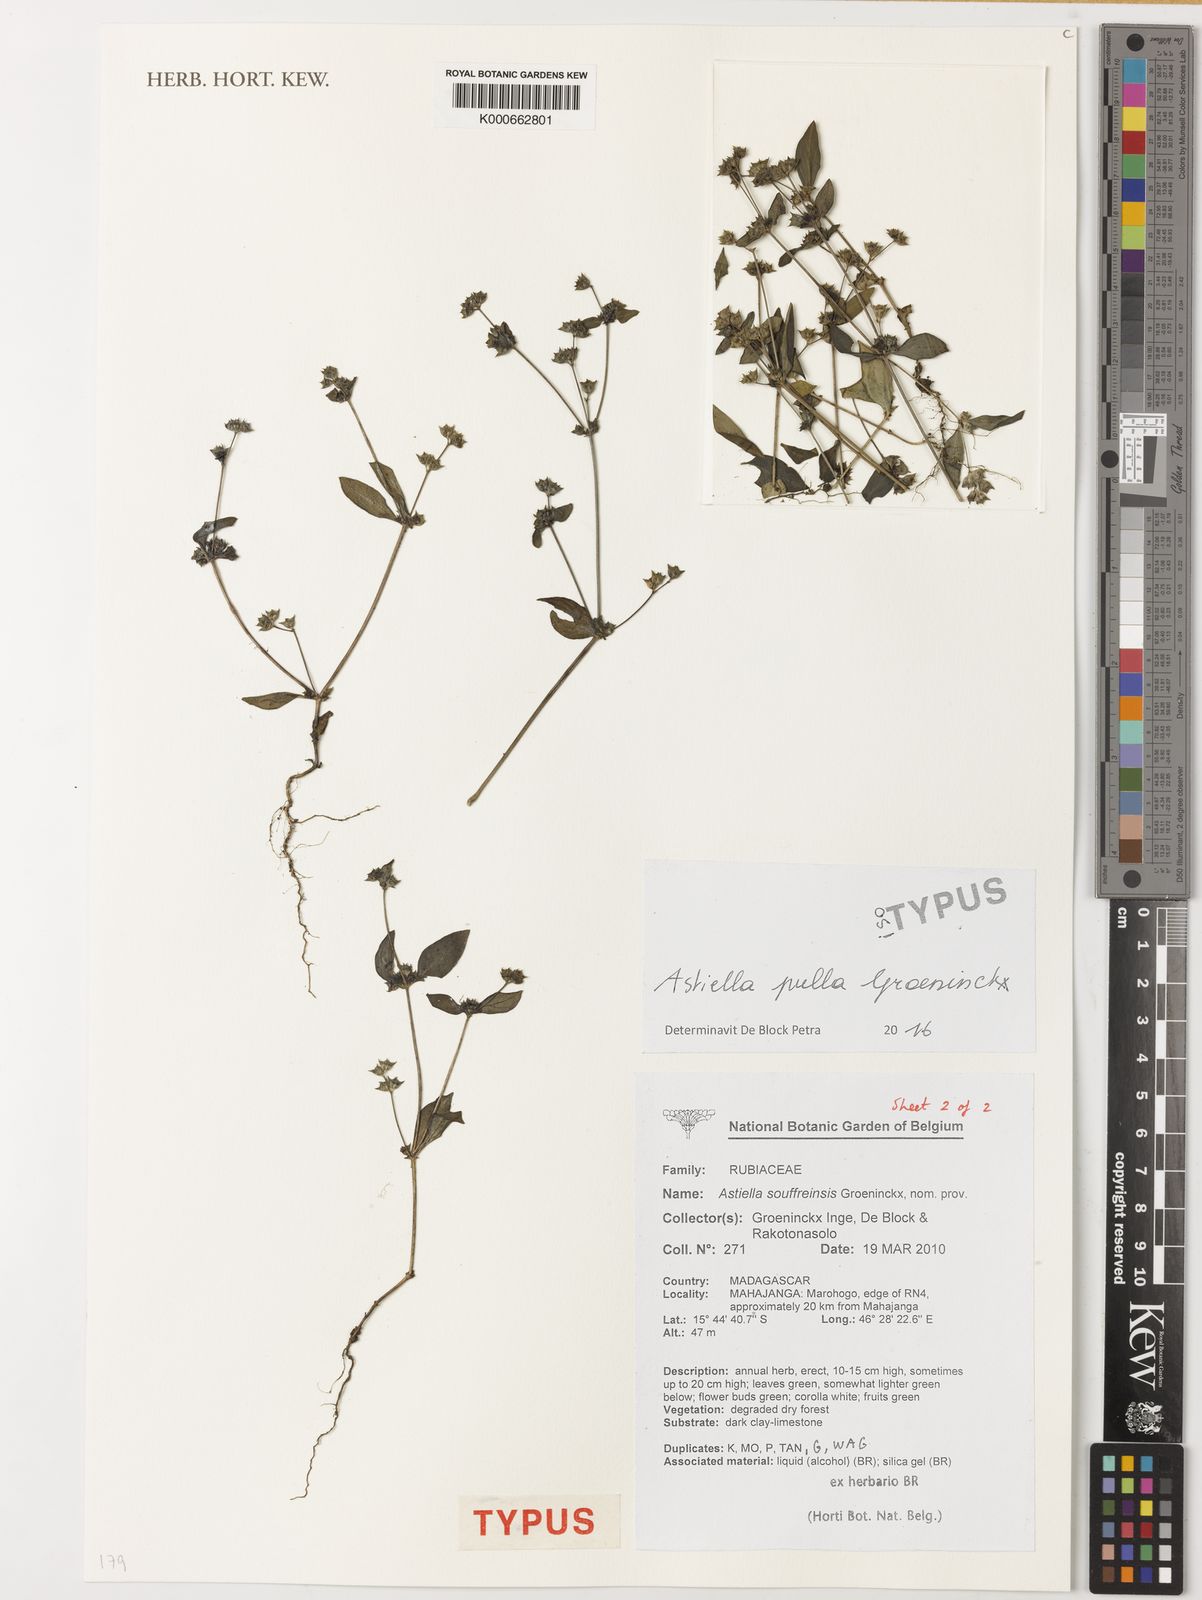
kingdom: Plantae
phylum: Tracheophyta
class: Magnoliopsida
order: Gentianales
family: Rubiaceae
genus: Astiella
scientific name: Astiella pulla
